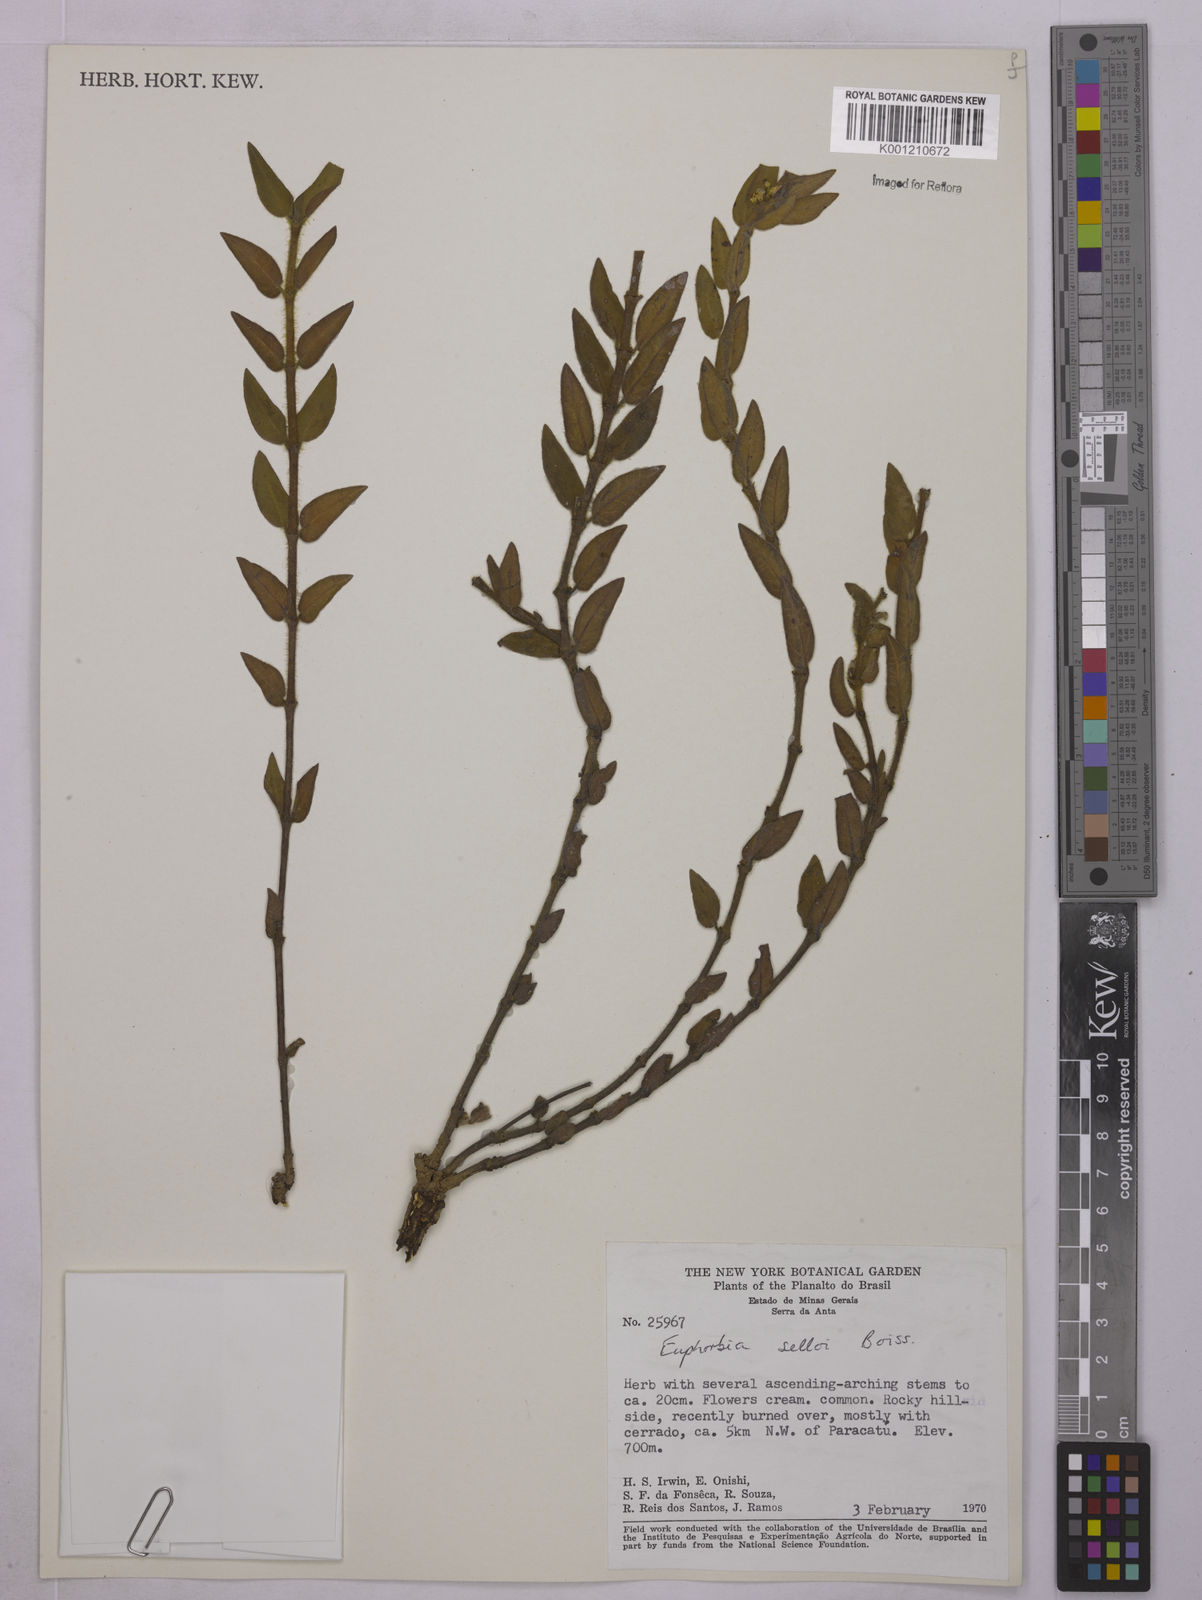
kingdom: Plantae
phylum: Tracheophyta
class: Magnoliopsida
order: Malpighiales
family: Euphorbiaceae
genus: Euphorbia
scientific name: Euphorbia selloi
